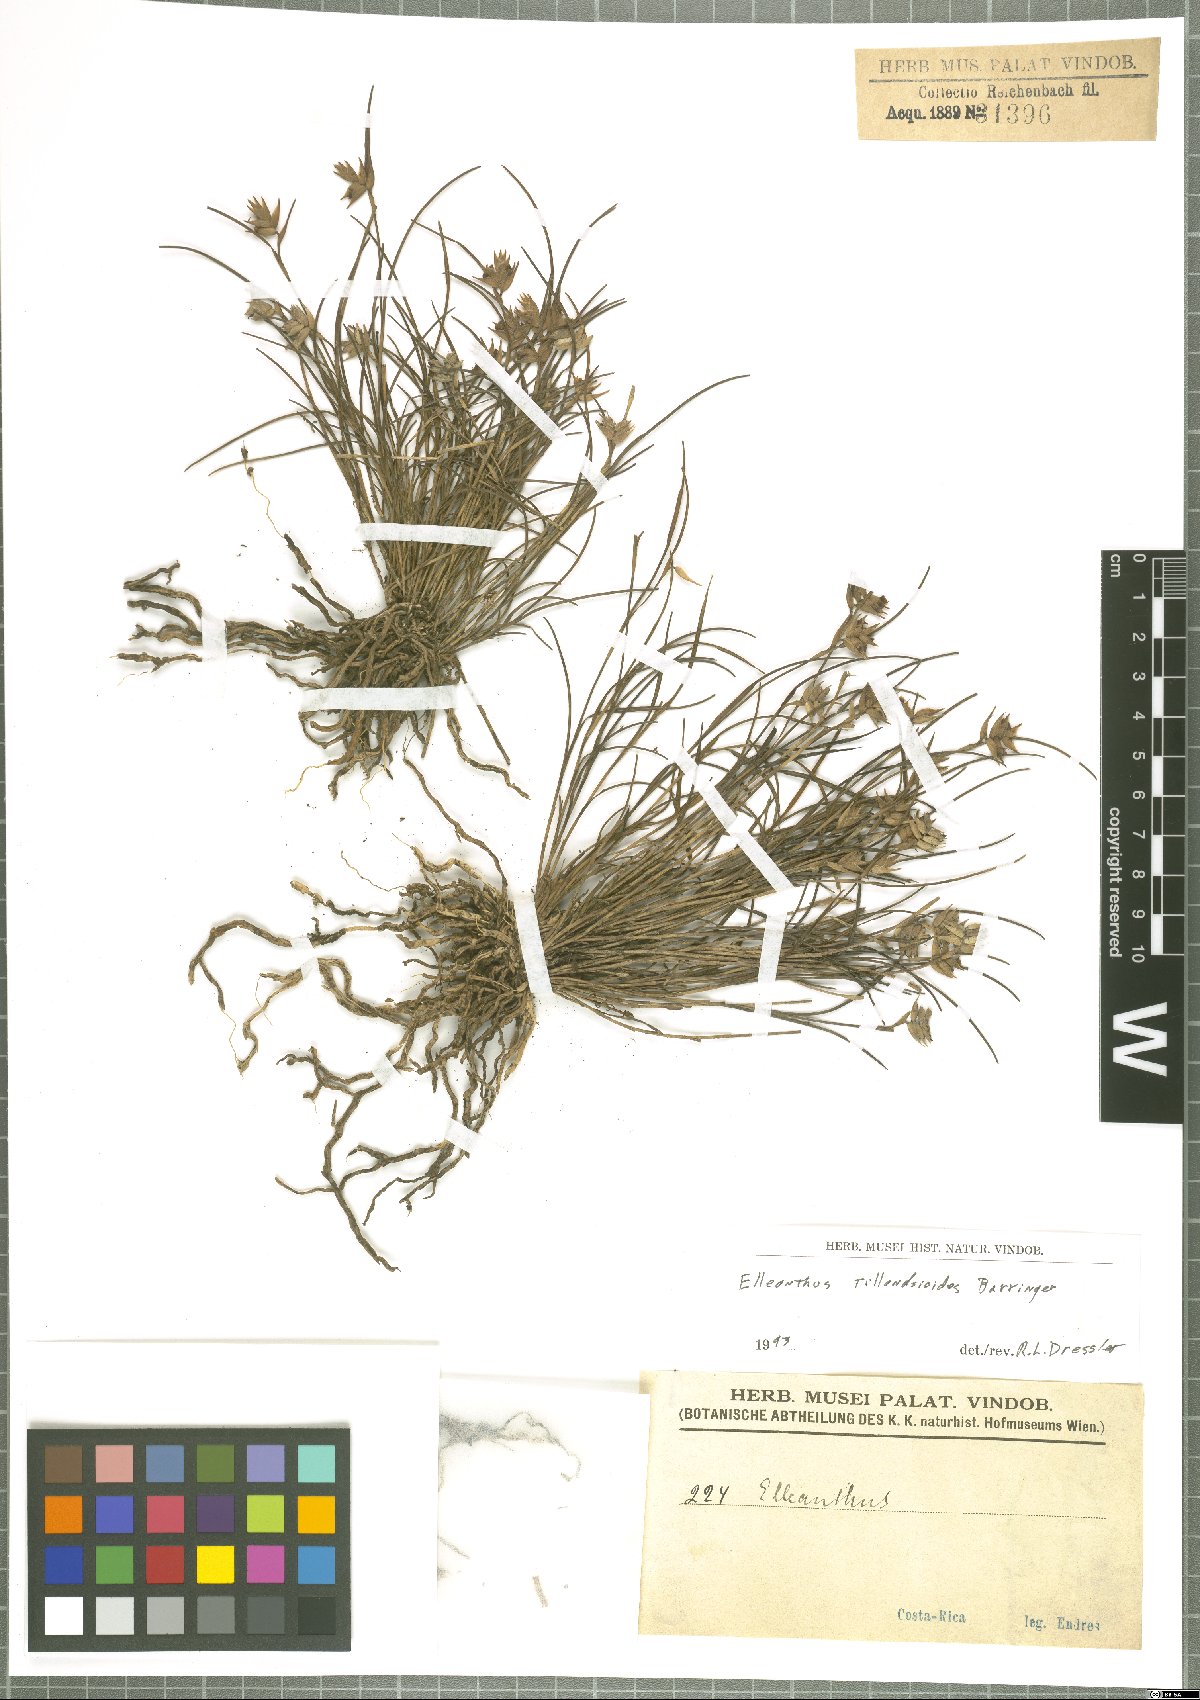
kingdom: Plantae
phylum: Tracheophyta
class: Liliopsida
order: Asparagales
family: Orchidaceae
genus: Elleanthus
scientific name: Elleanthus tillandsioides
